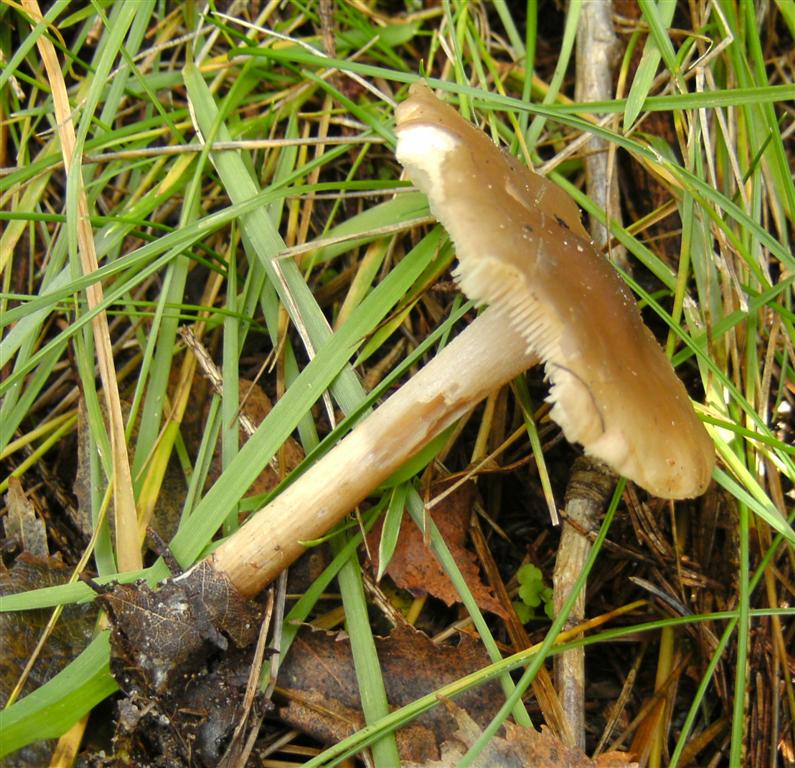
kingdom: Fungi
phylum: Basidiomycota
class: Agaricomycetes
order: Agaricales
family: Tricholomataceae
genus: Melanoleuca
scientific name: Melanoleuca polioleuca
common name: almindelig munkehat
